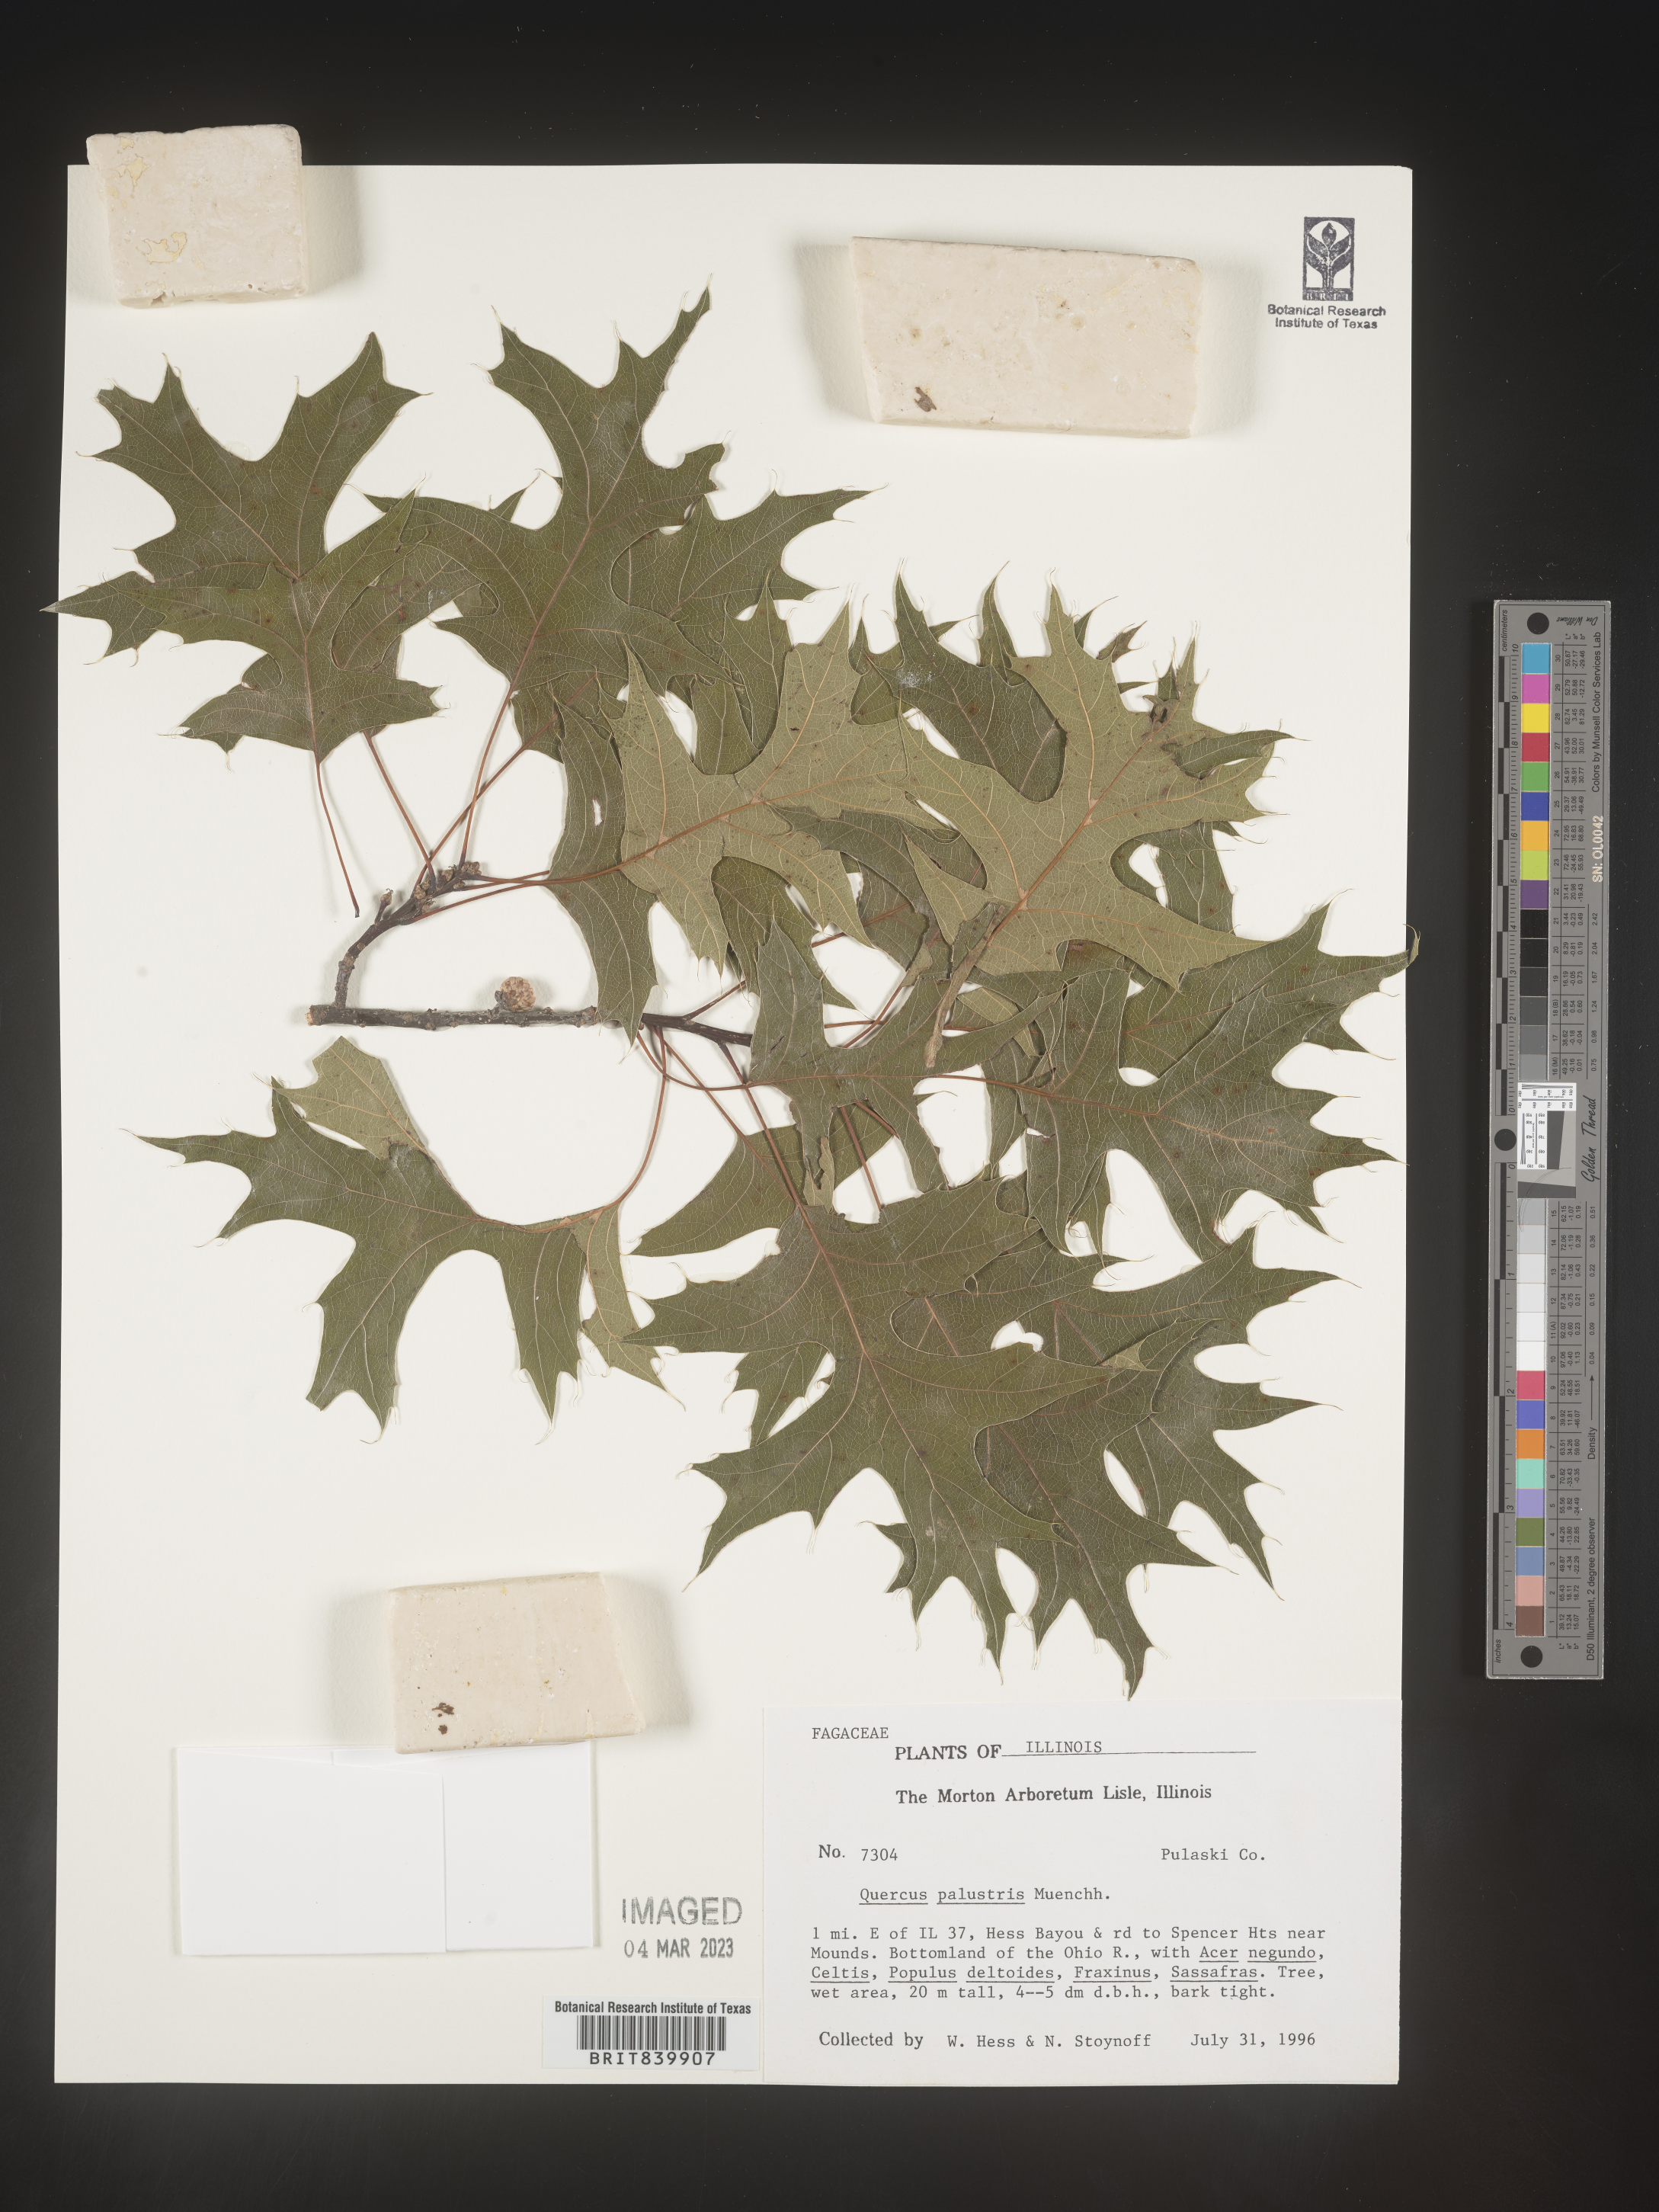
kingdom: Plantae
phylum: Tracheophyta
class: Magnoliopsida
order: Fagales
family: Fagaceae
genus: Quercus
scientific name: Quercus palustris
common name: Pin oak
